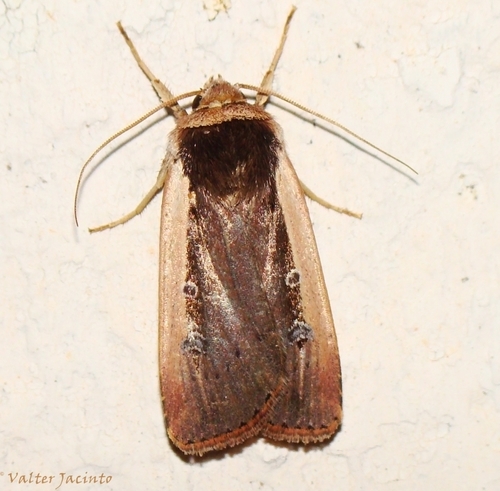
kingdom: Animalia
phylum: Arthropoda
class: Insecta
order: Lepidoptera
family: Noctuidae
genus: Ochropleura
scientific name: Ochropleura
